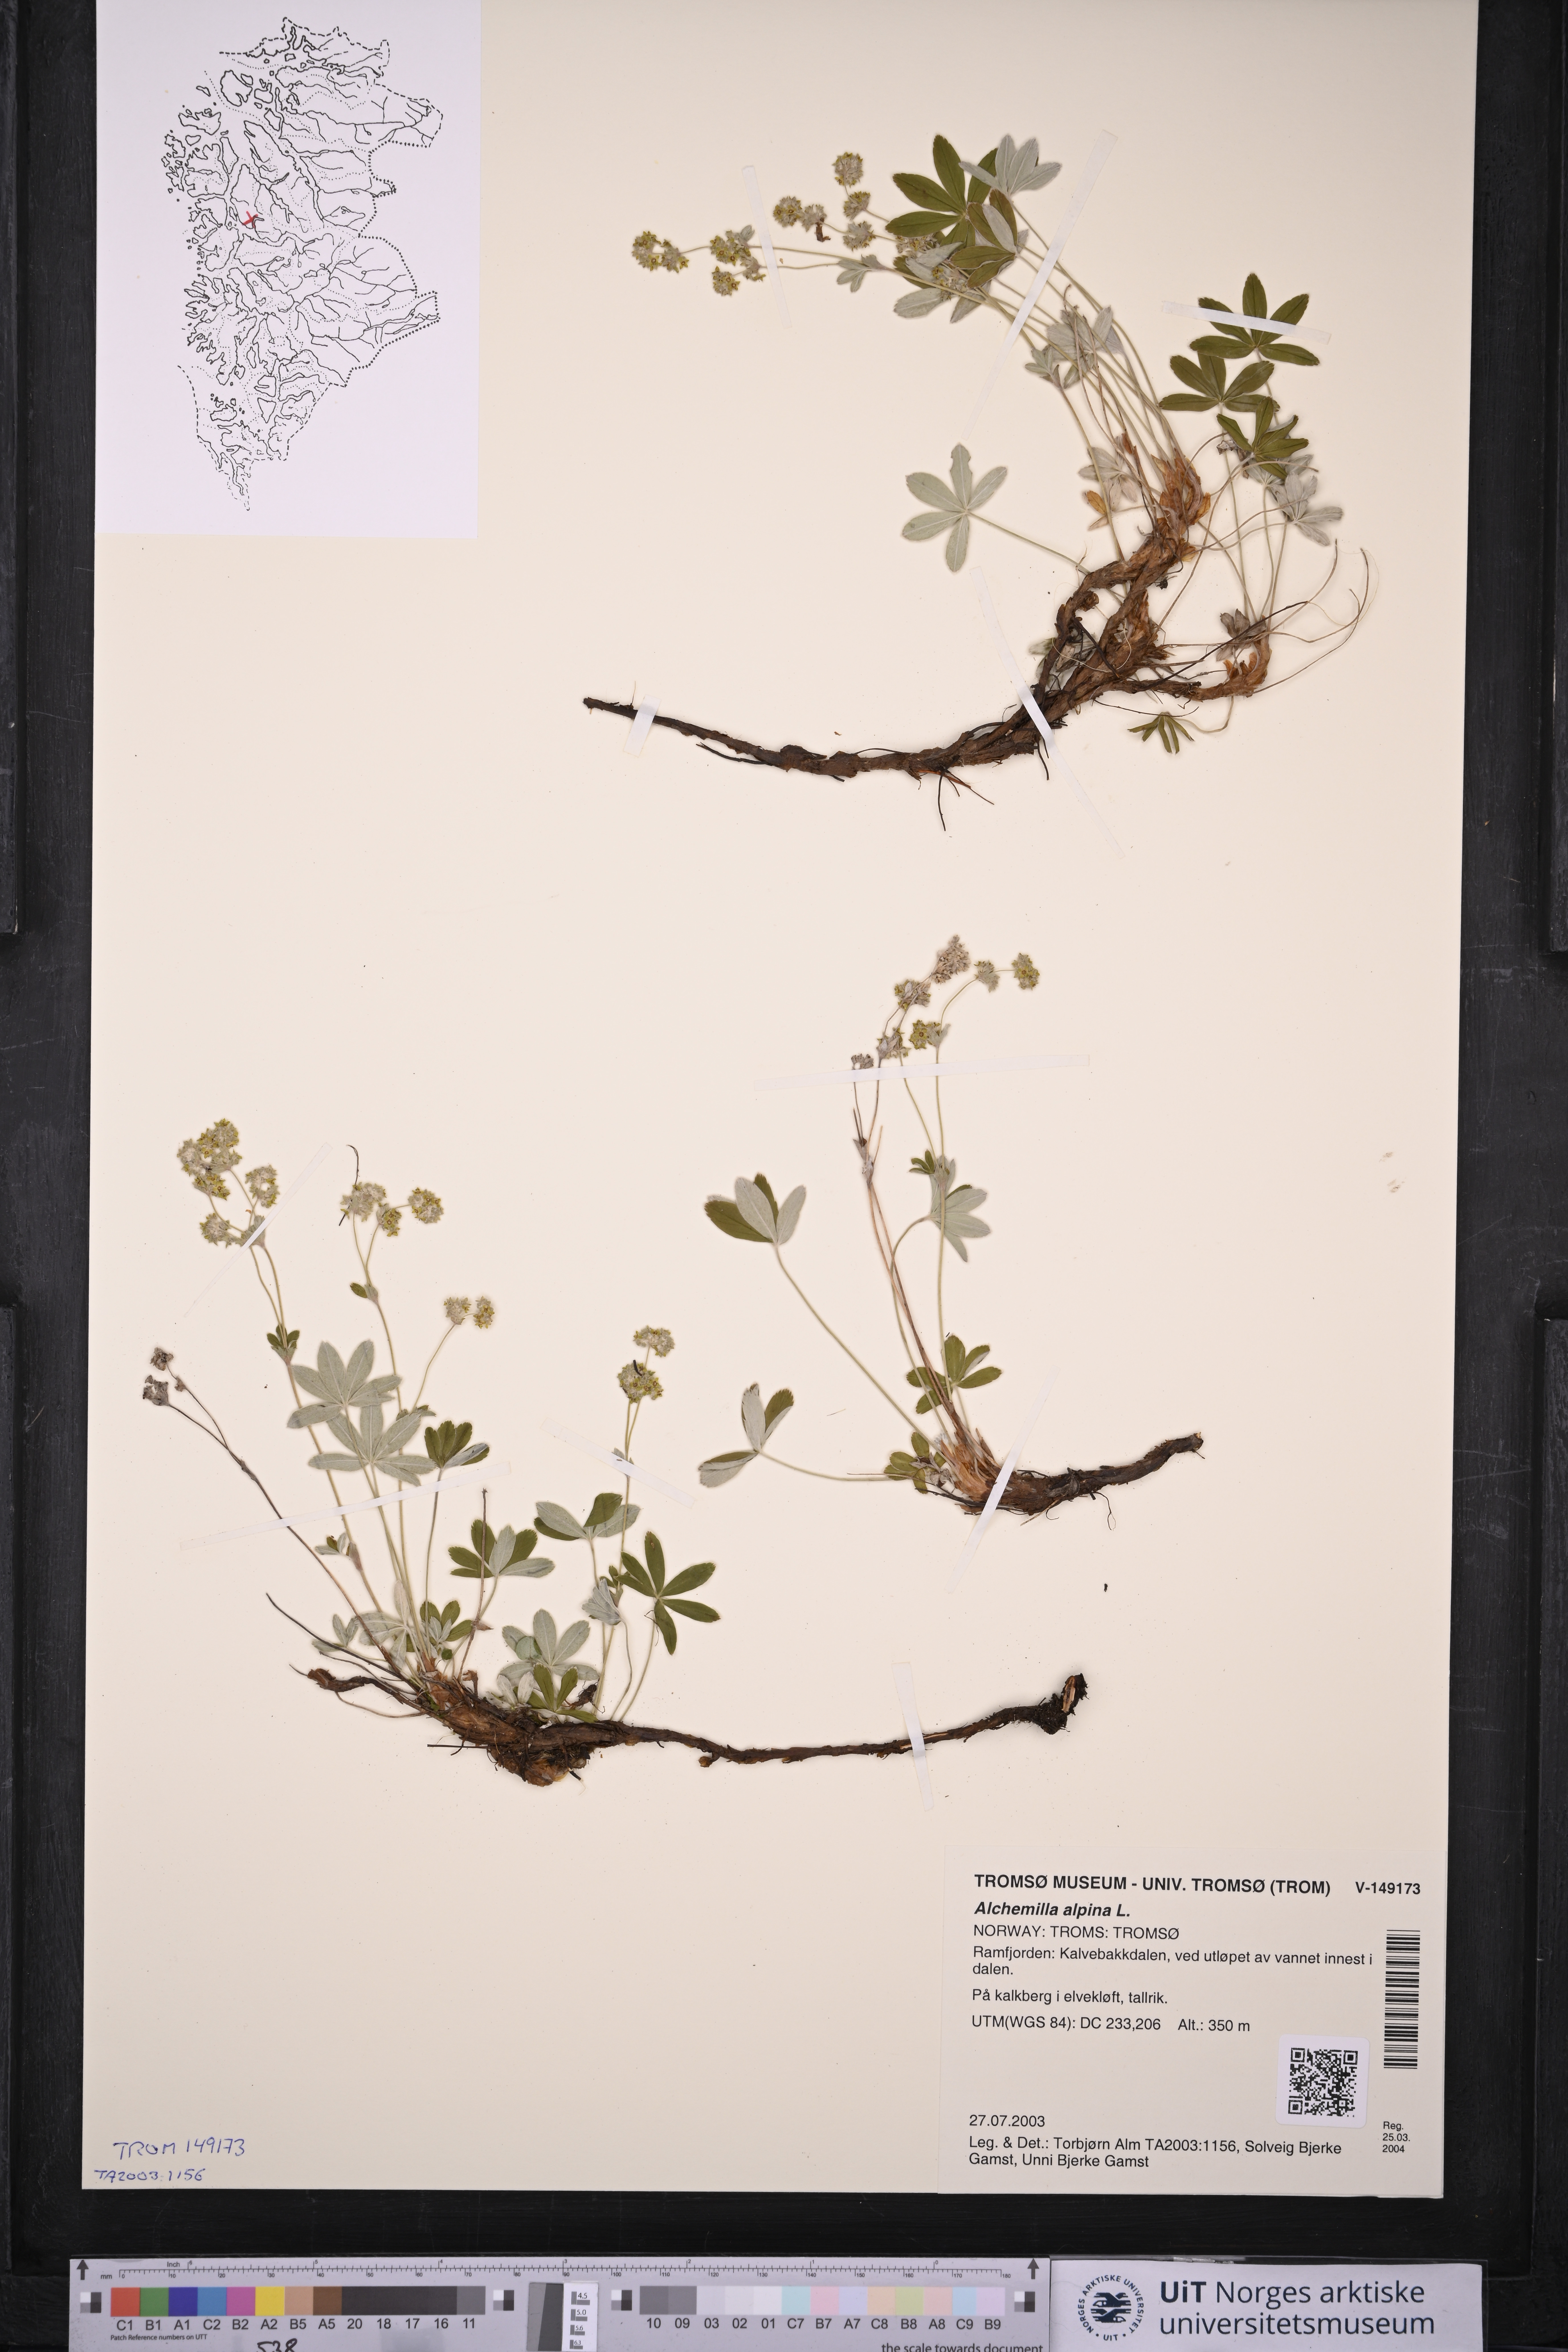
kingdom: Plantae
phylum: Tracheophyta
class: Magnoliopsida
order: Rosales
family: Rosaceae
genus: Alchemilla
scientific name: Alchemilla alpina
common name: Alpine lady's-mantle
